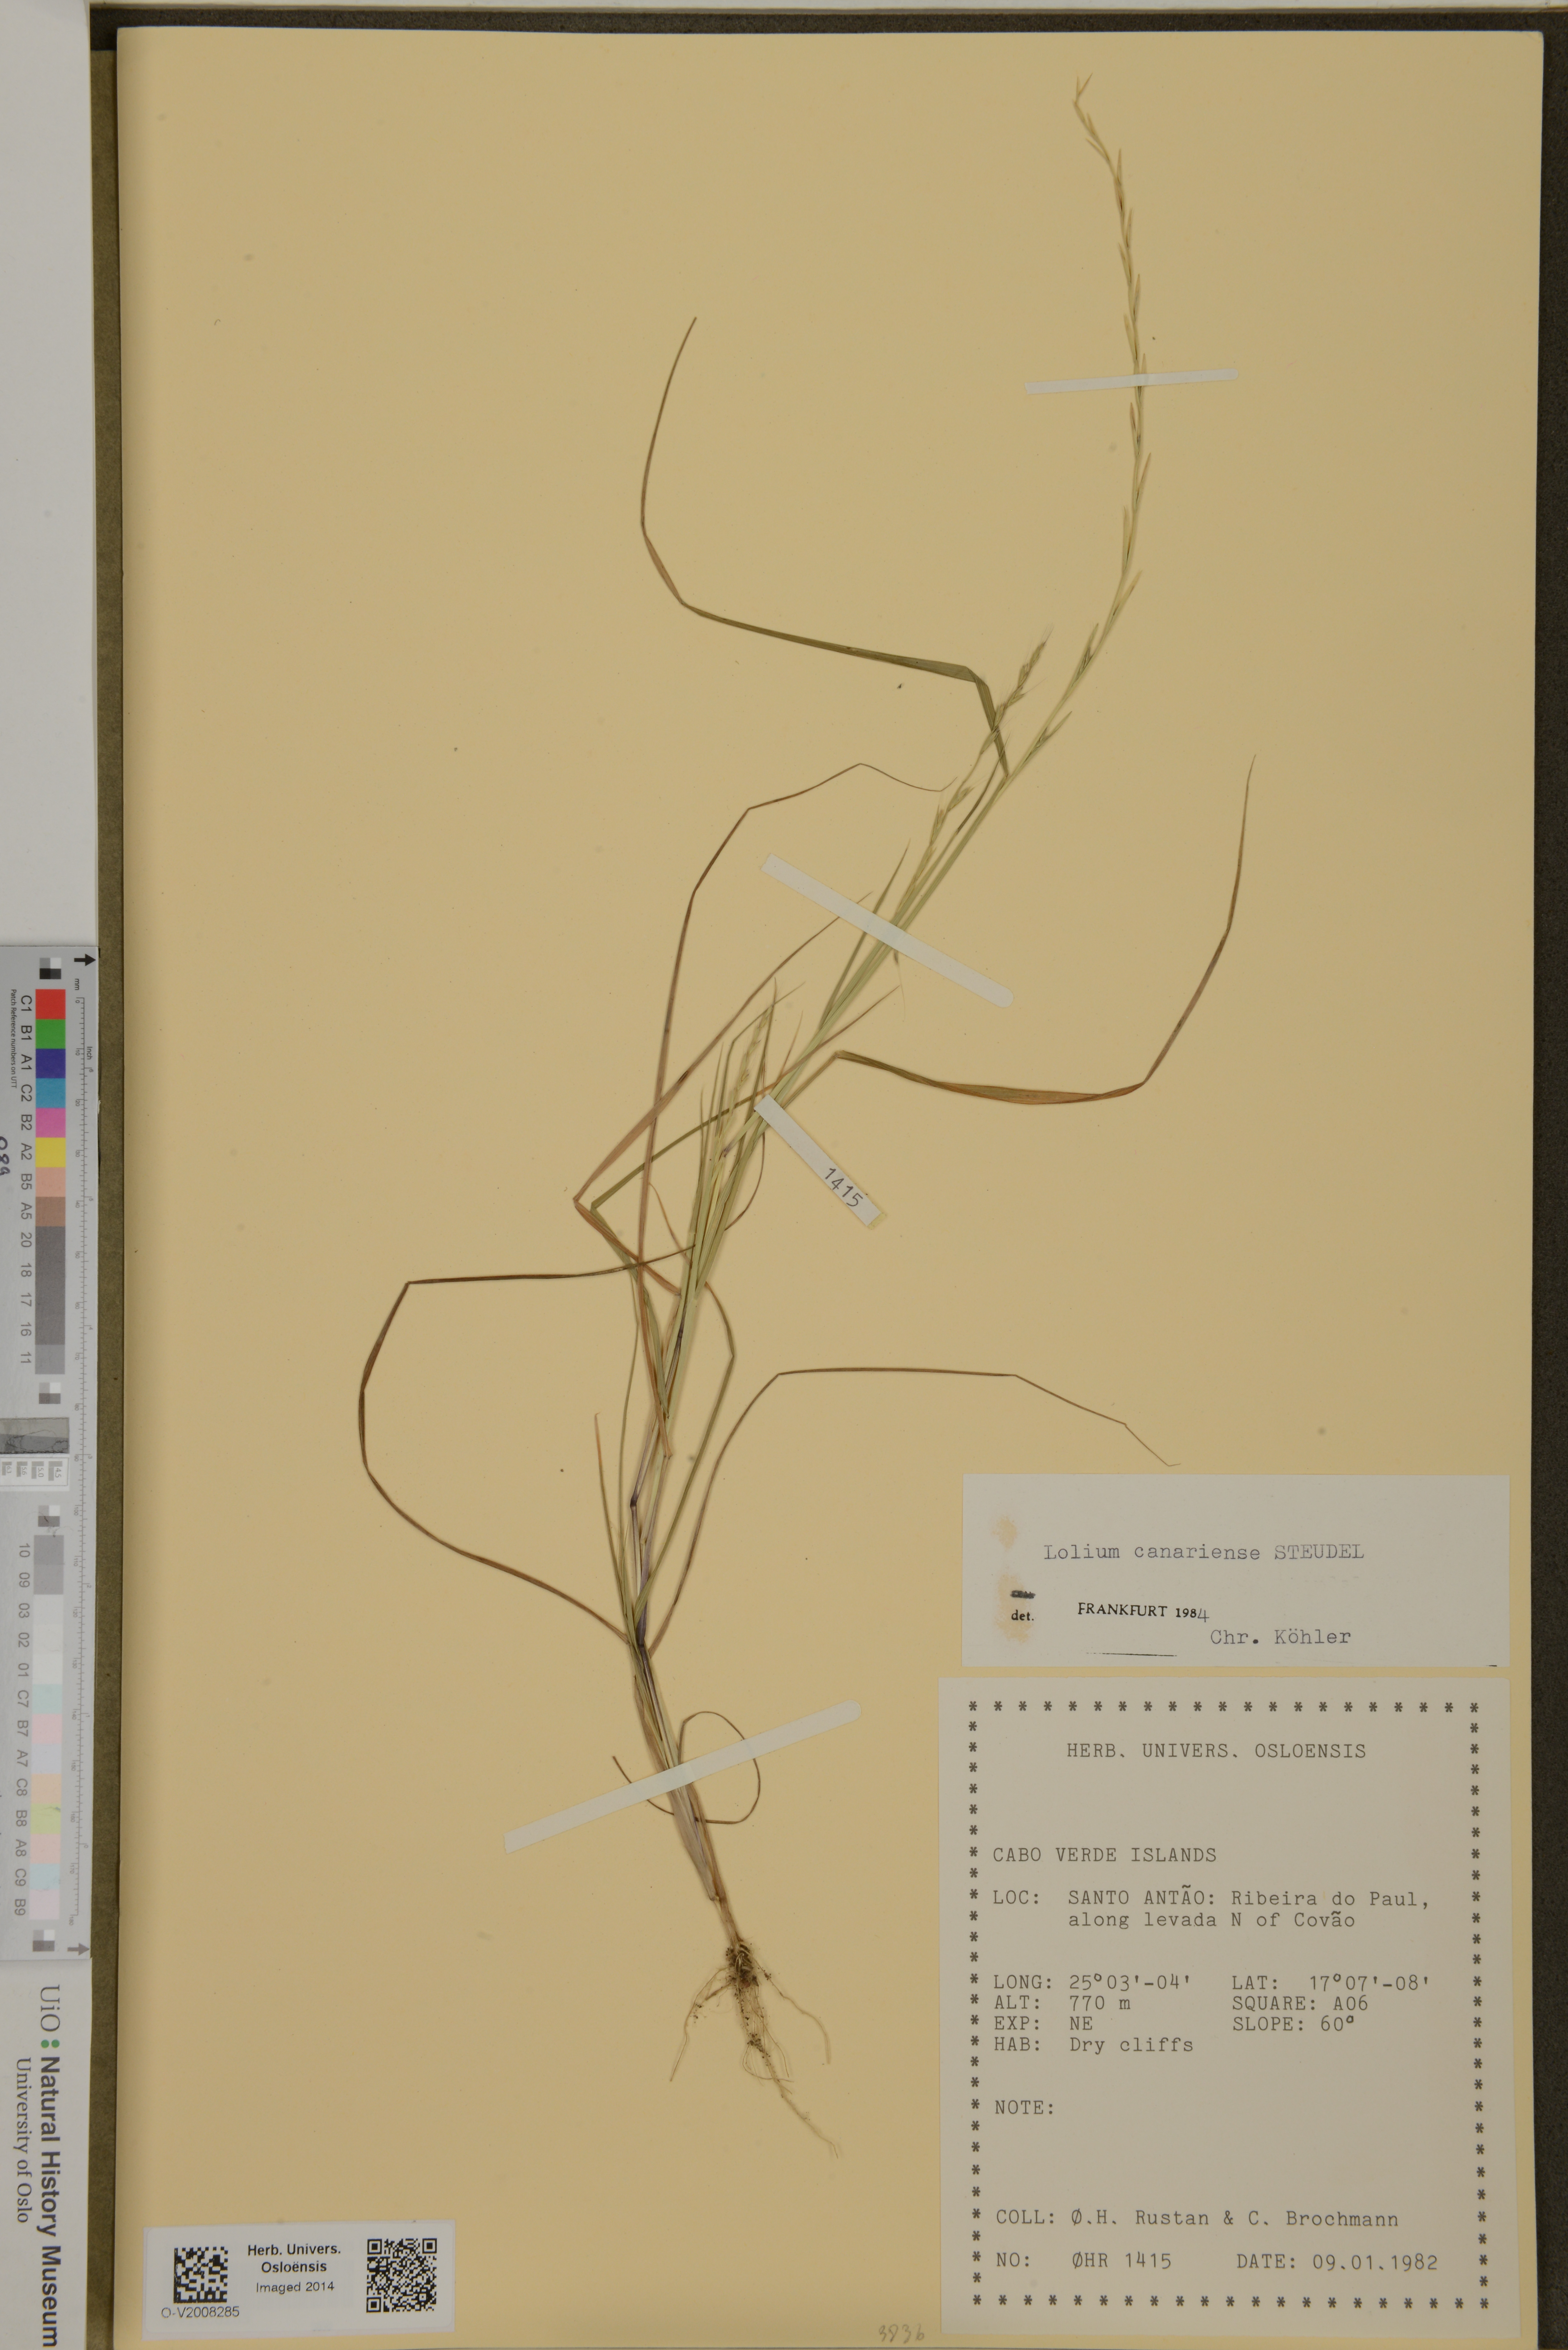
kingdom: Plantae
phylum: Tracheophyta
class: Liliopsida
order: Poales
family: Poaceae
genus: Lolium
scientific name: Lolium canariense
